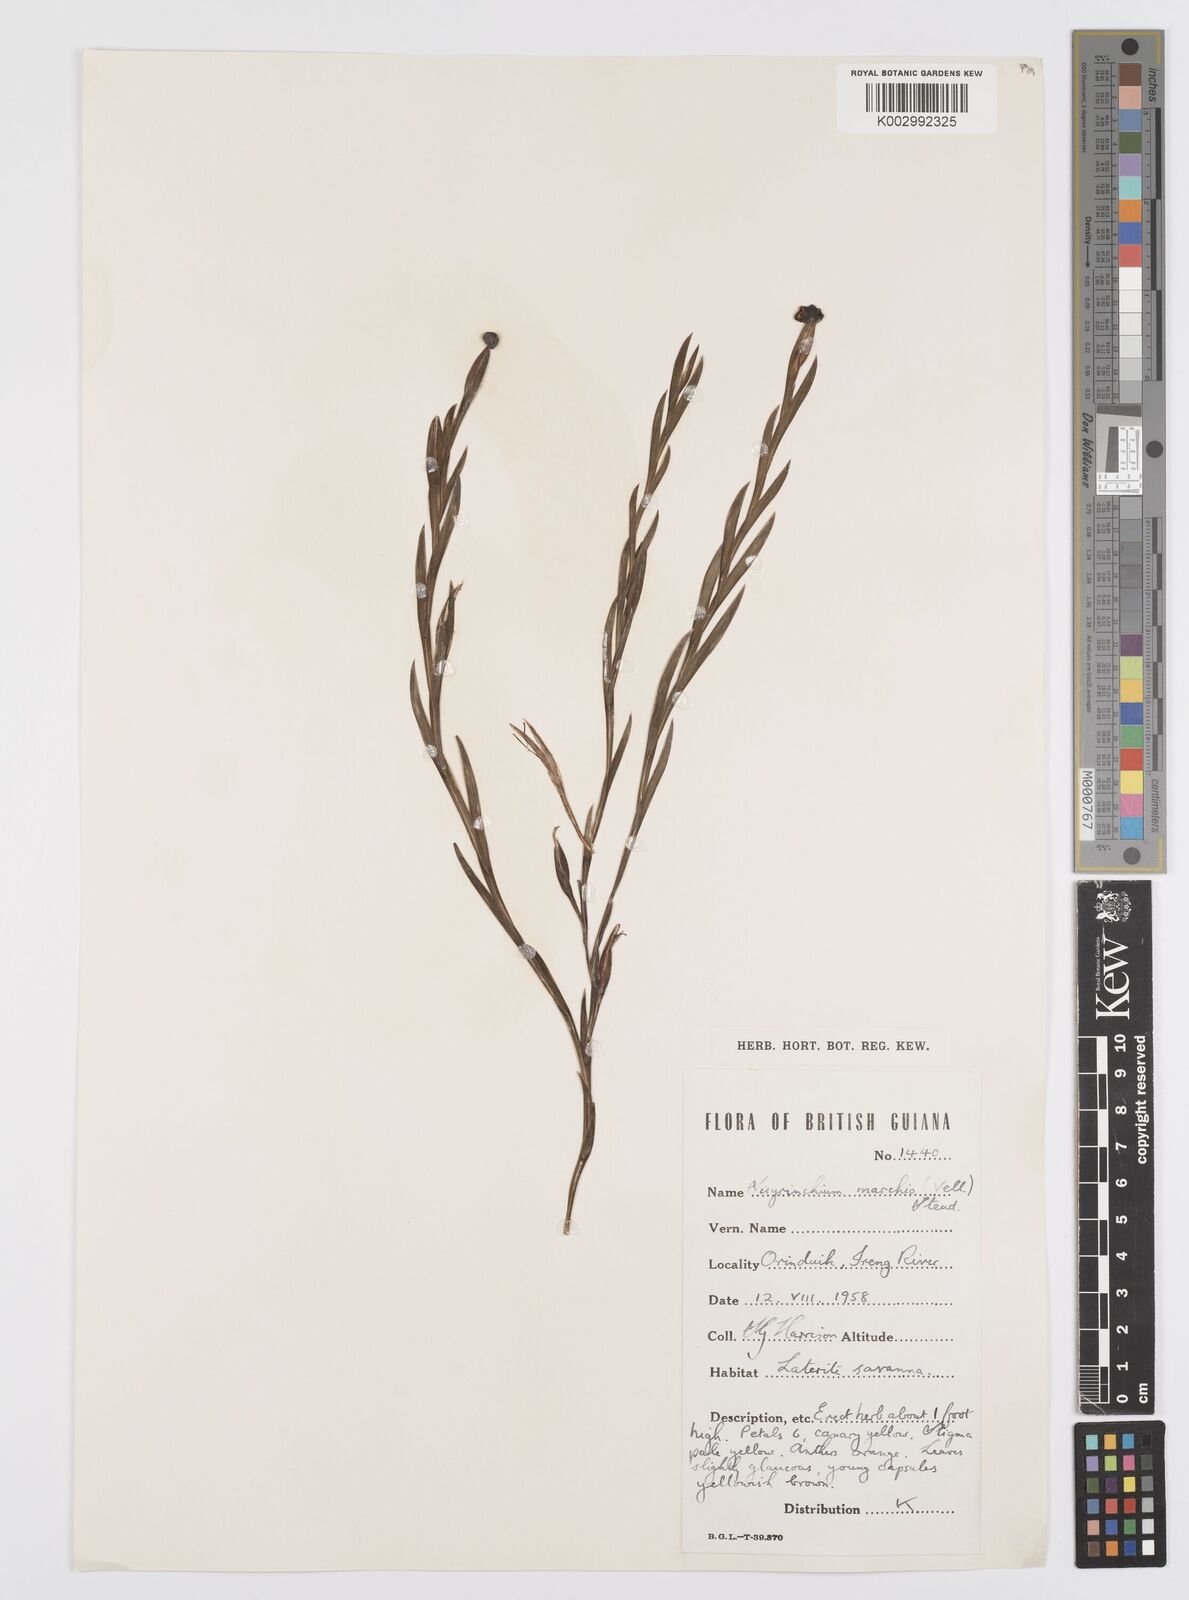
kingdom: Plantae
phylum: Tracheophyta
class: Liliopsida
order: Asparagales
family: Iridaceae
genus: Sisyrinchium
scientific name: Sisyrinchium vaginatum
